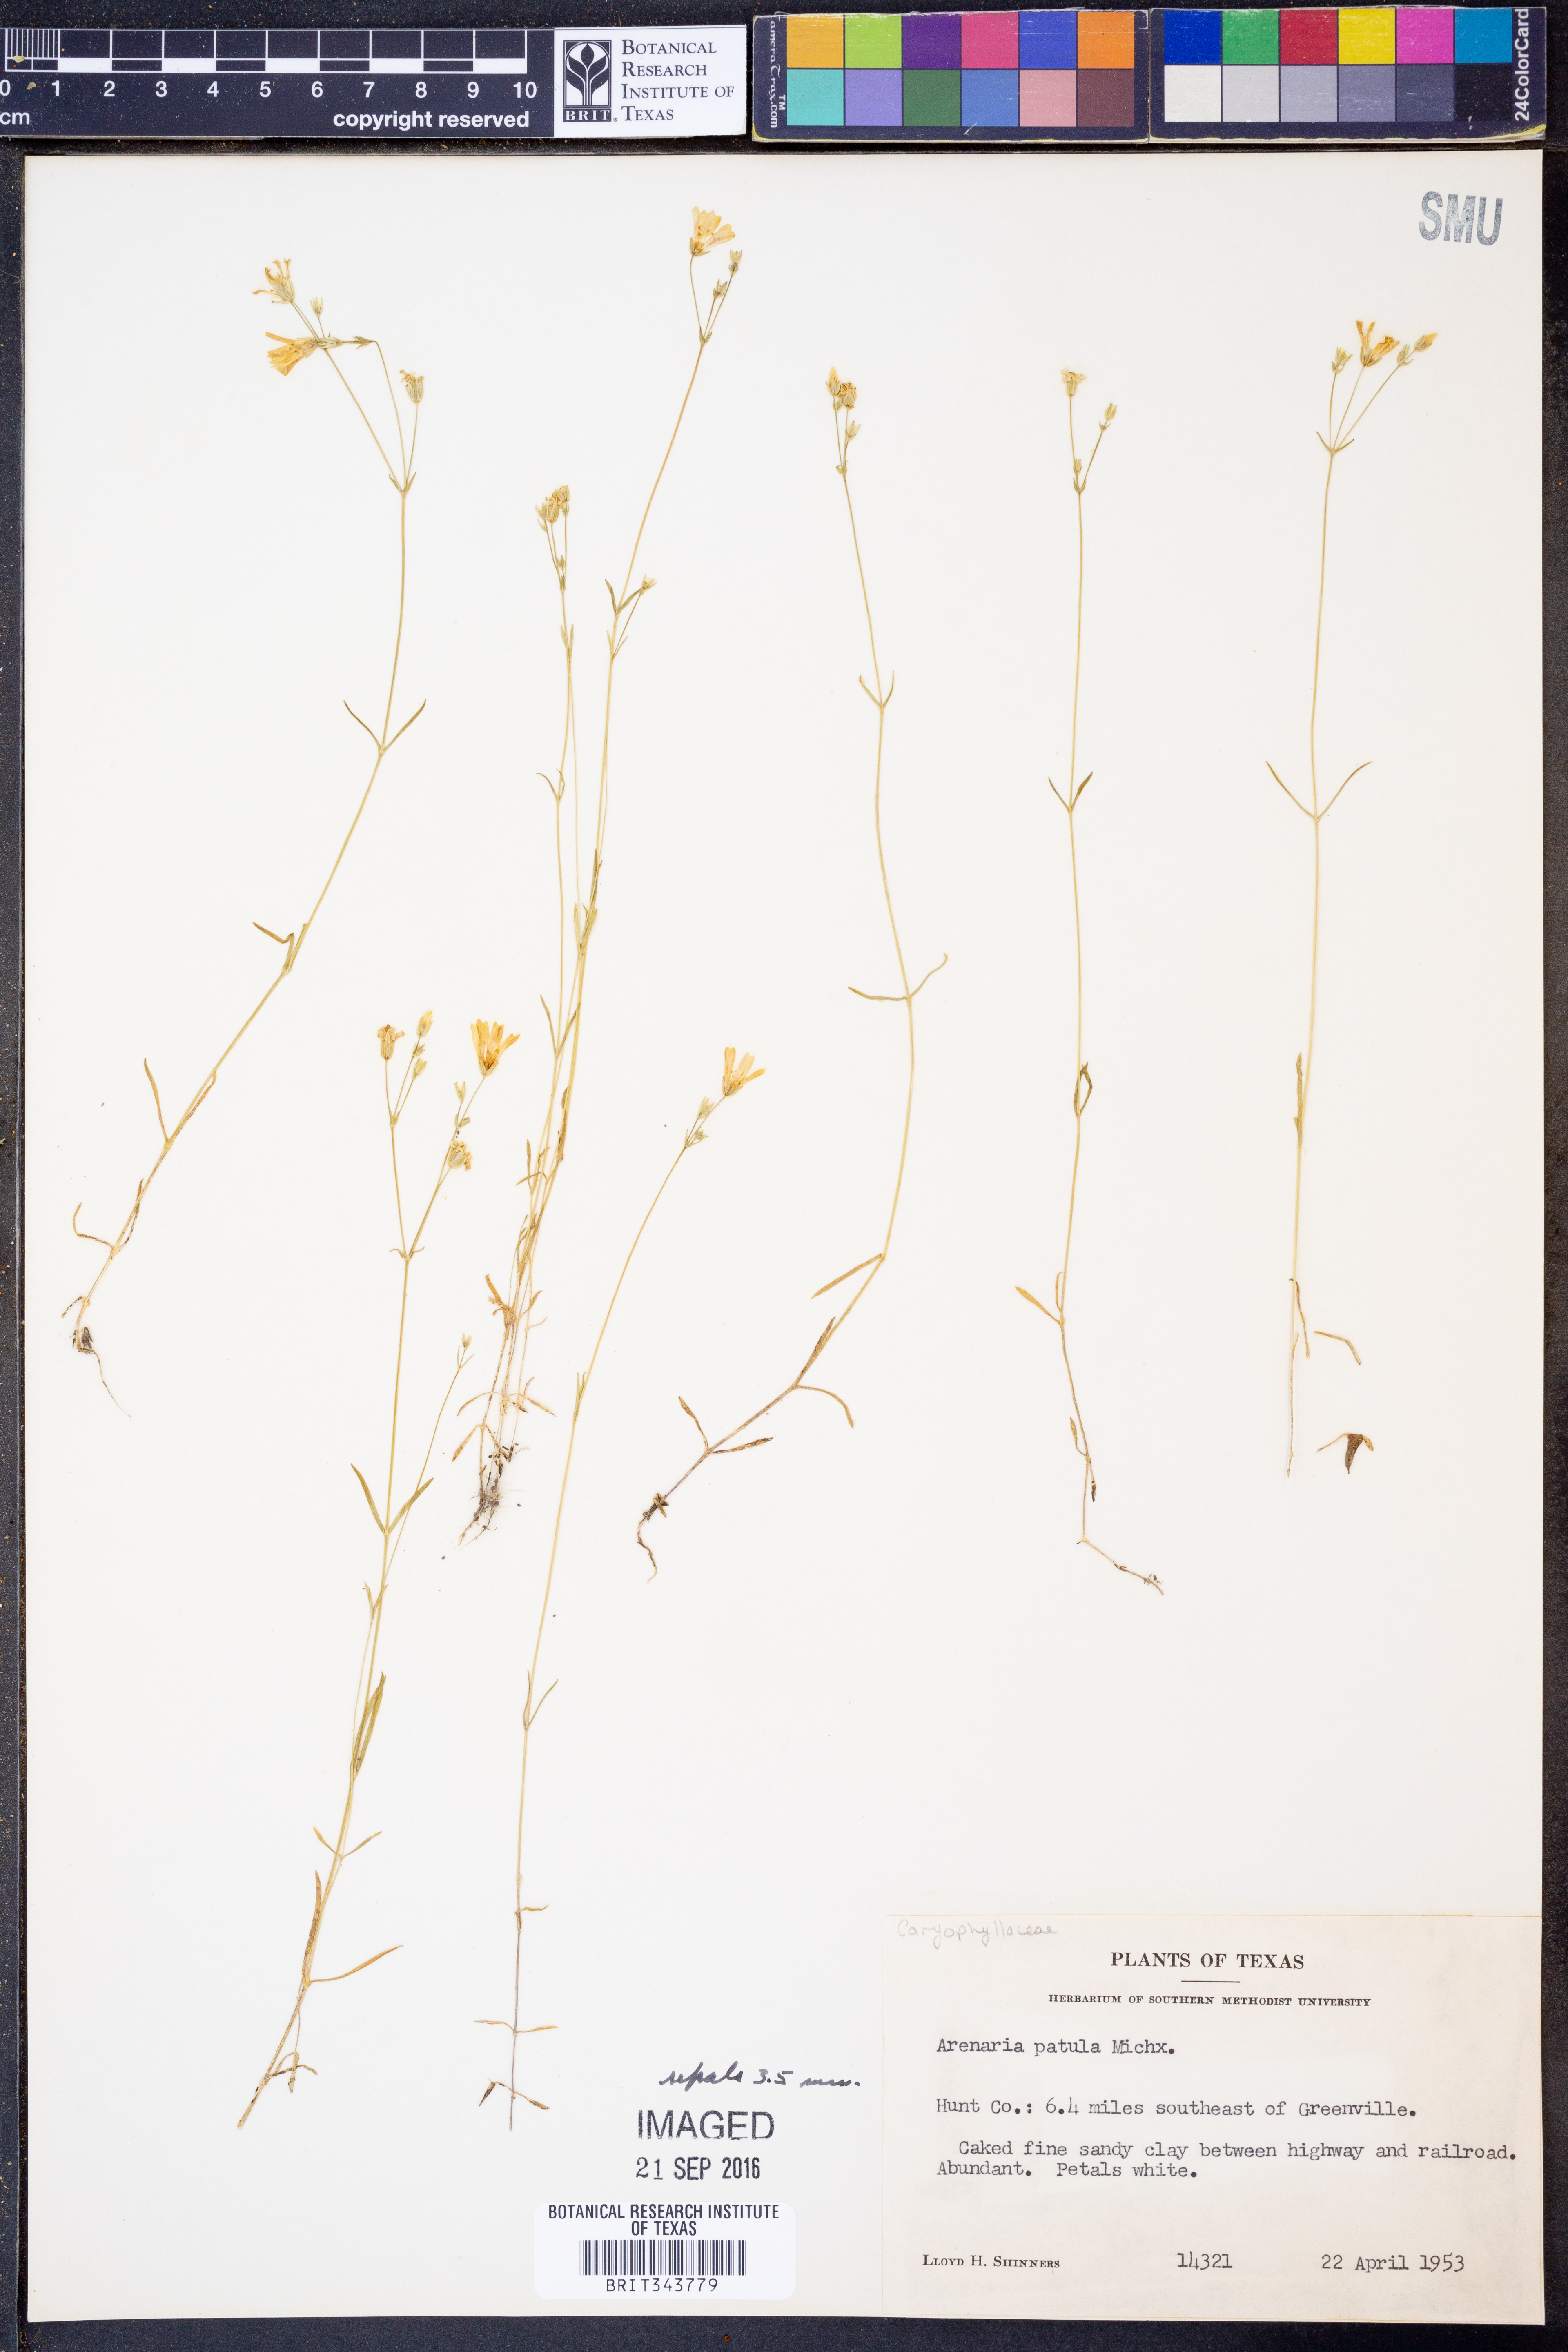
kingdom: Plantae
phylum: Tracheophyta
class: Magnoliopsida
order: Caryophyllales
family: Caryophyllaceae
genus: Mononeuria
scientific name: Mononeuria patula
